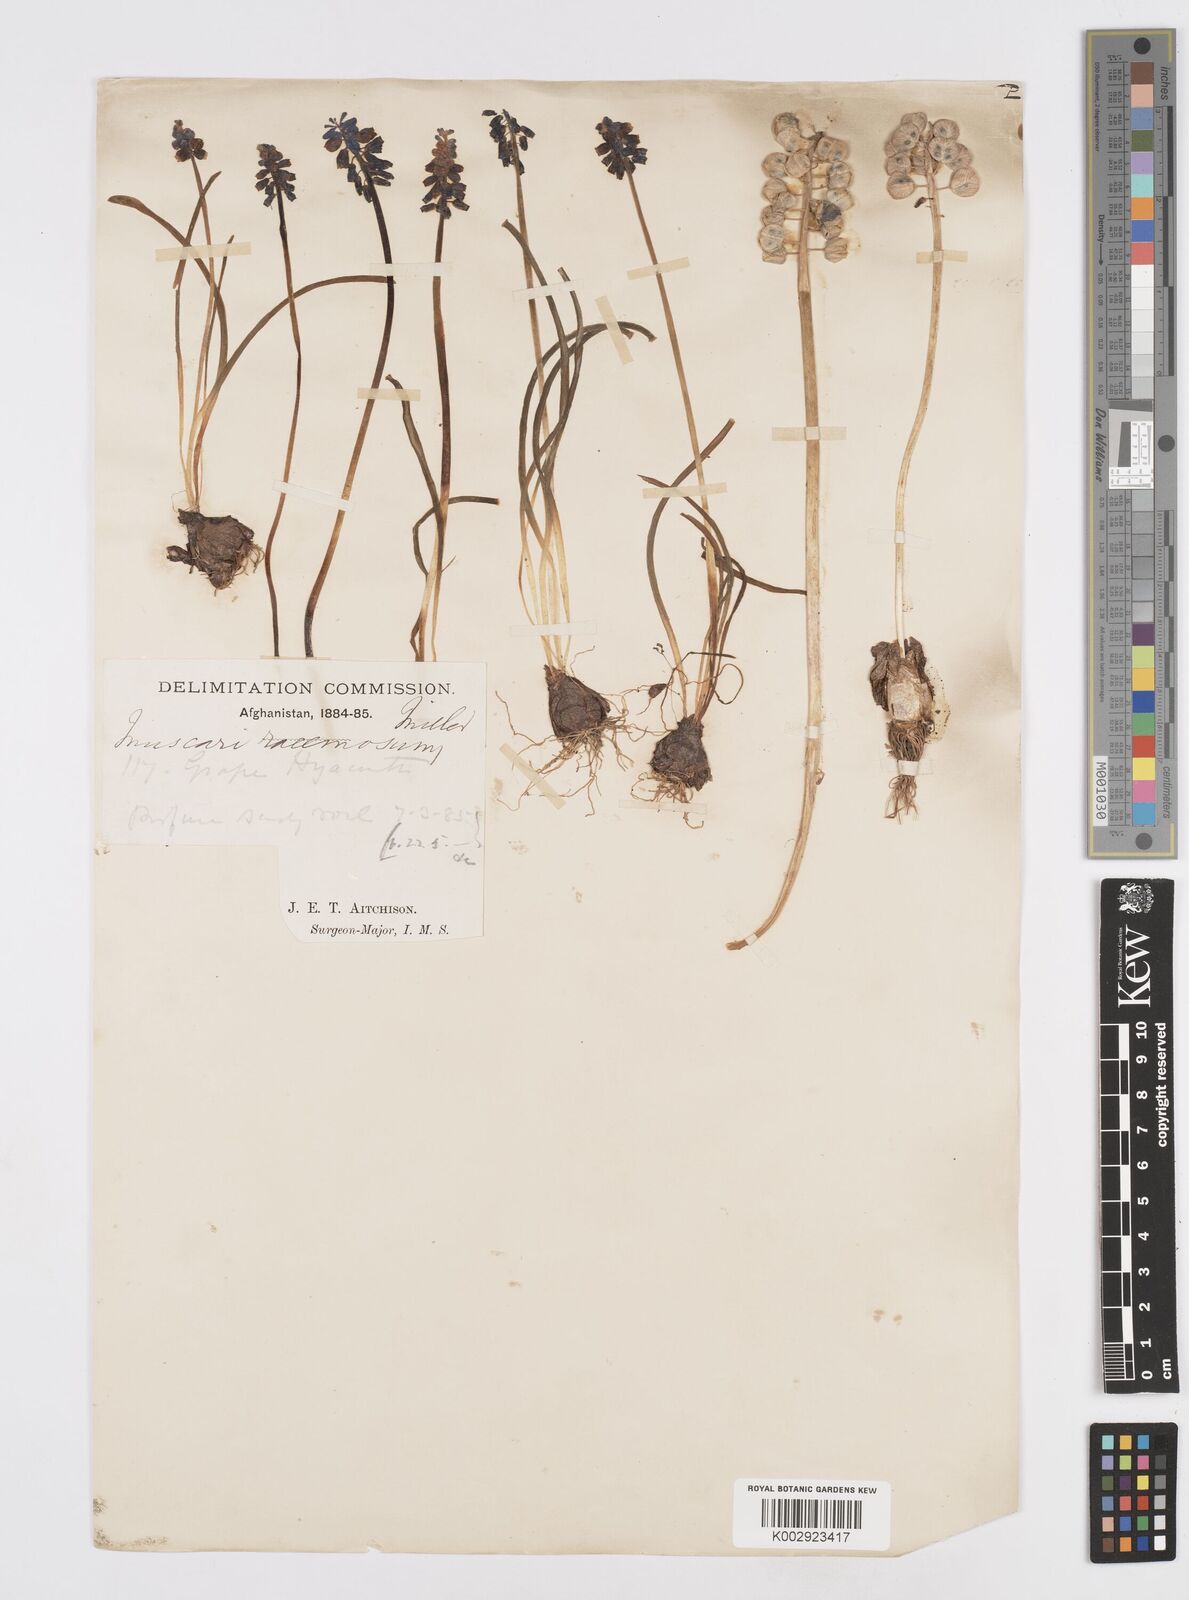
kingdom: Plantae
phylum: Tracheophyta
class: Liliopsida
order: Asparagales
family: Asparagaceae
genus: Muscari
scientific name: Muscari neglectum
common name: Grape-hyacinth
